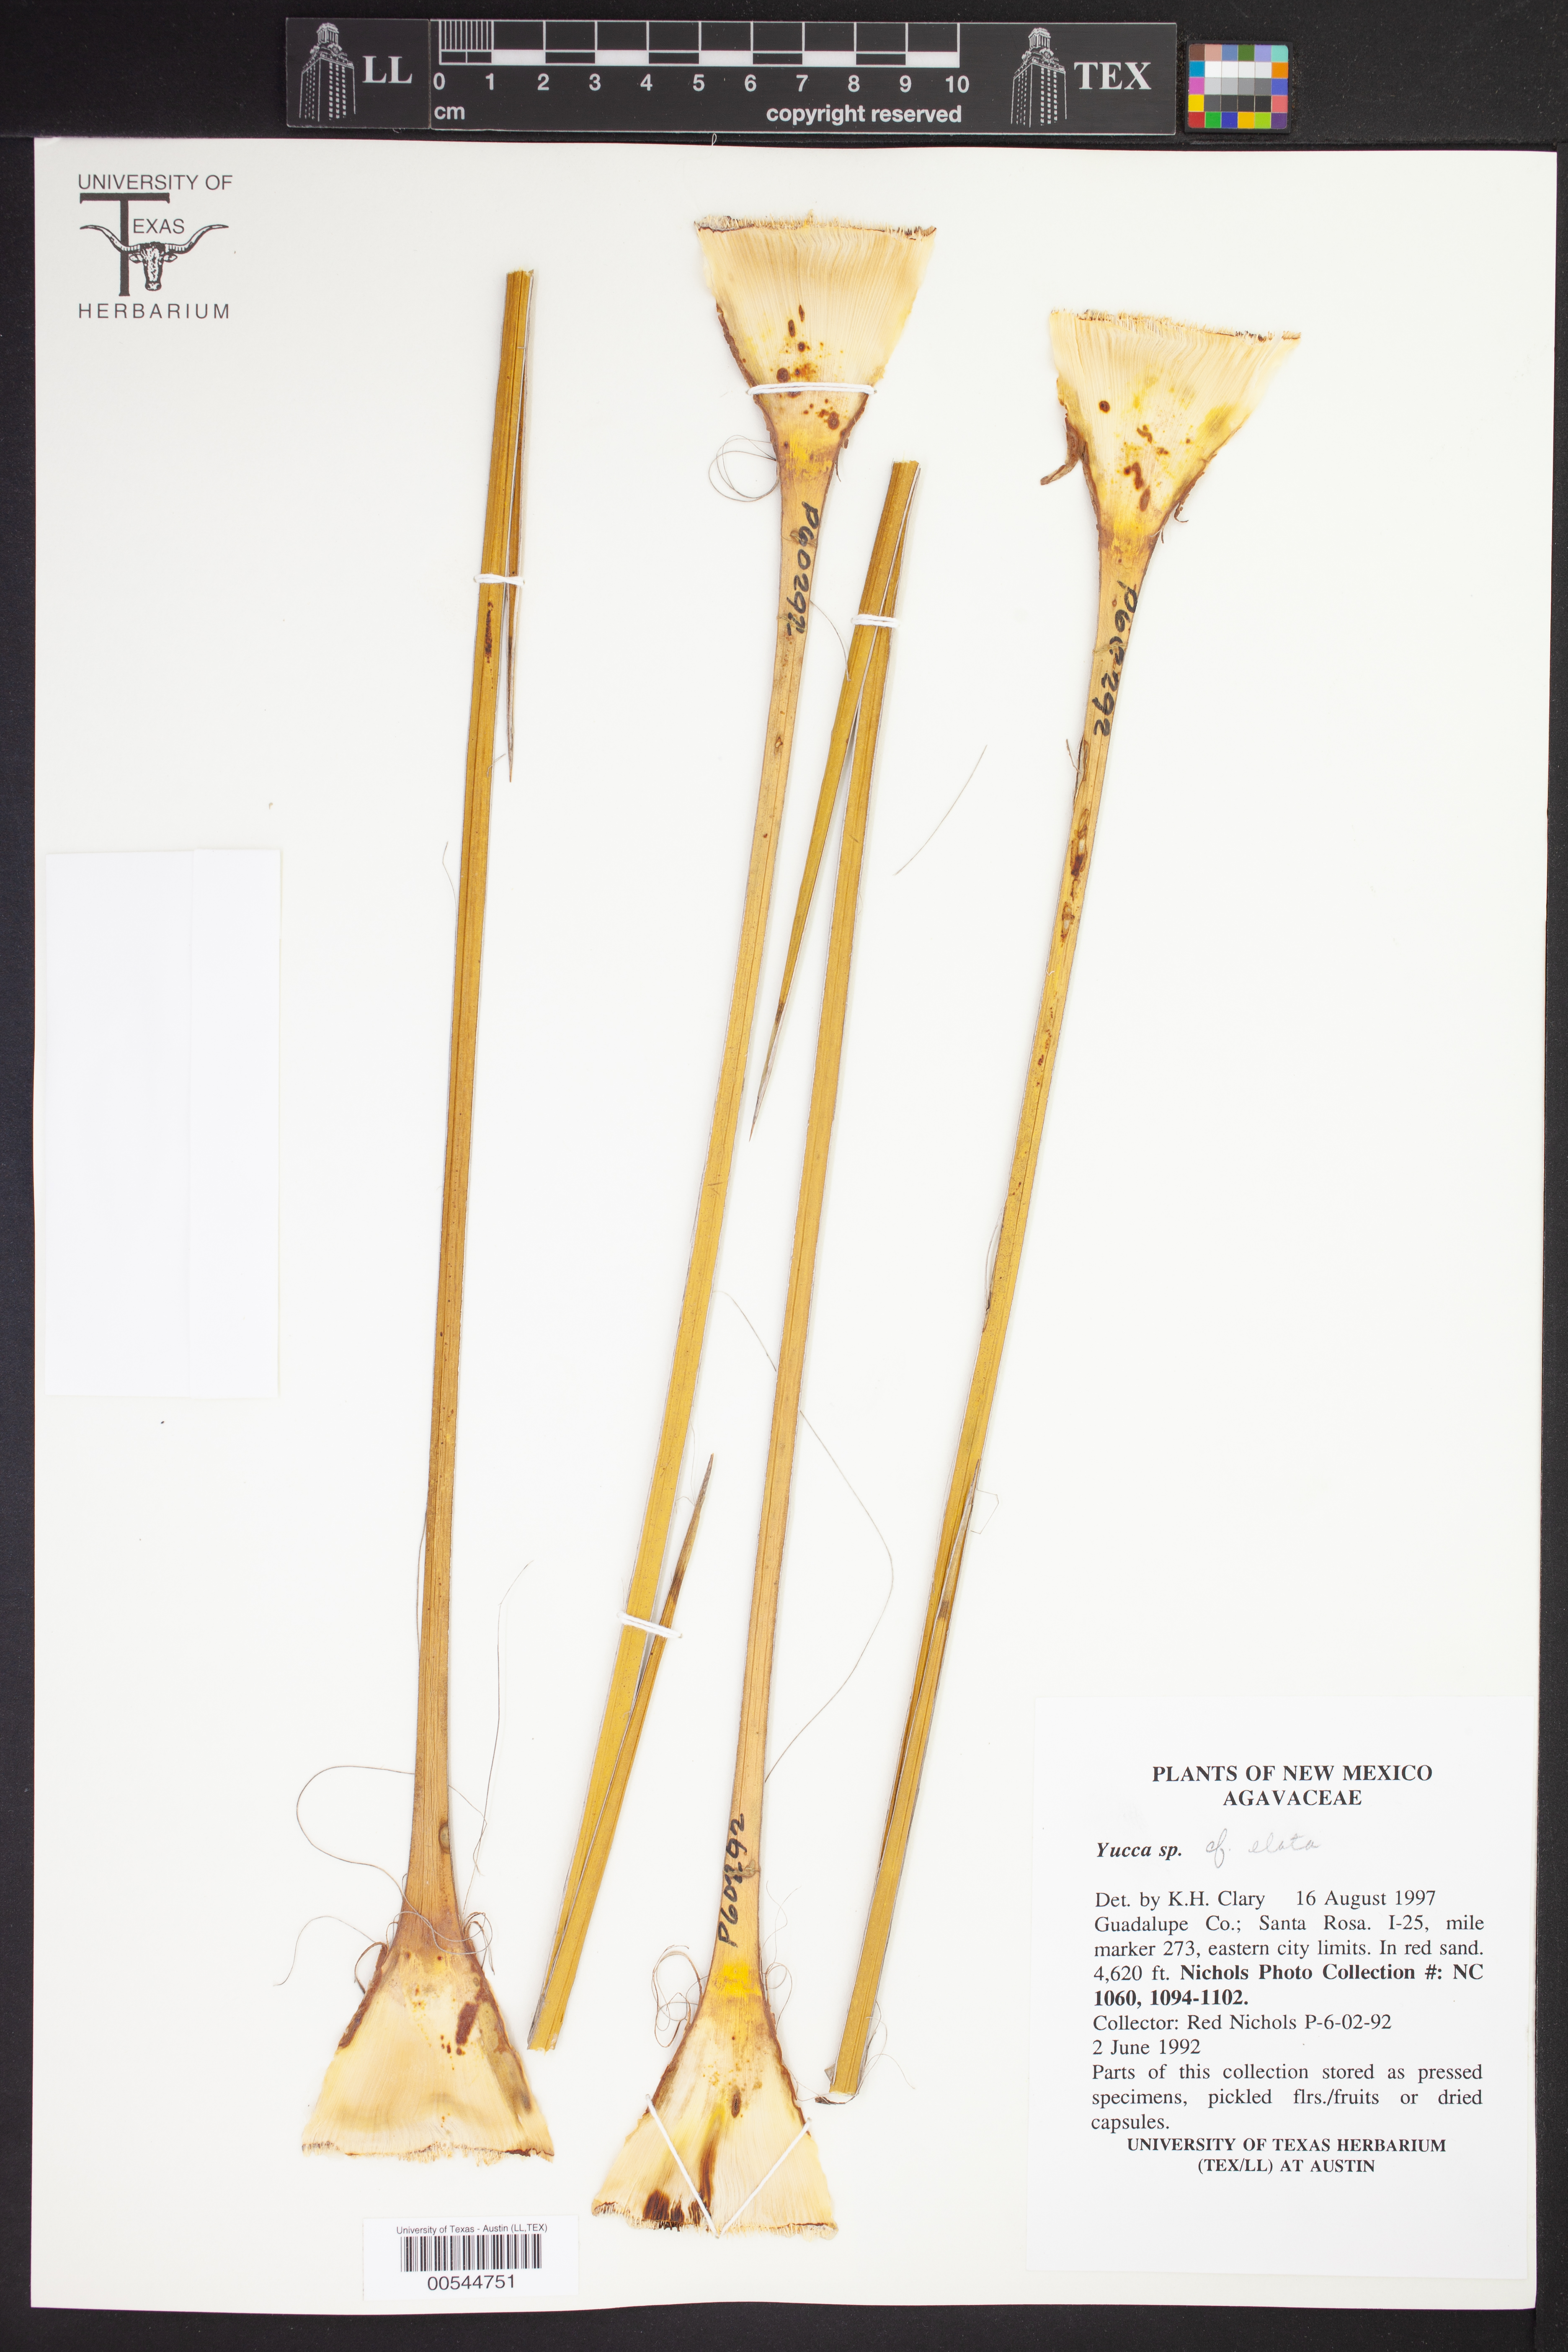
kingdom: Plantae
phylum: Tracheophyta
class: Liliopsida
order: Asparagales
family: Asparagaceae
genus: Yucca
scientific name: Yucca elata
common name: Palmella
